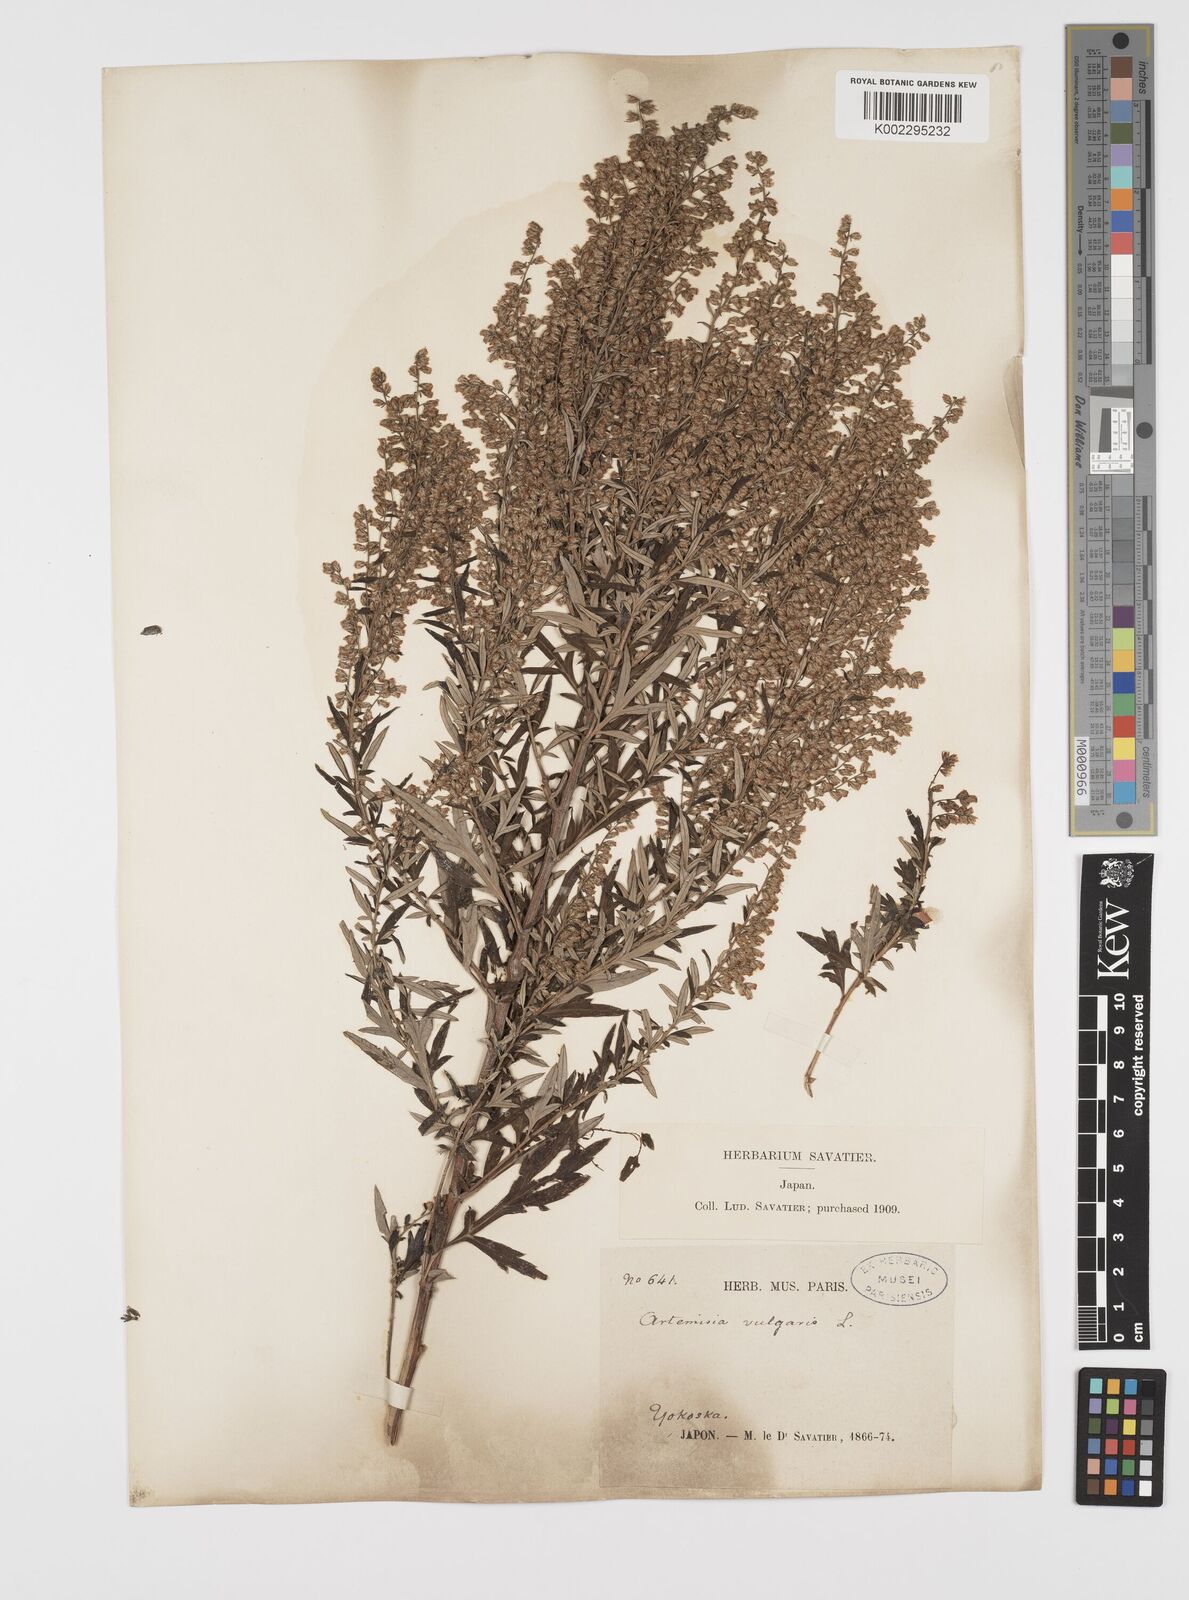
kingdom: Plantae
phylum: Tracheophyta
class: Magnoliopsida
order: Asterales
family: Asteraceae
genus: Artemisia
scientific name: Artemisia
